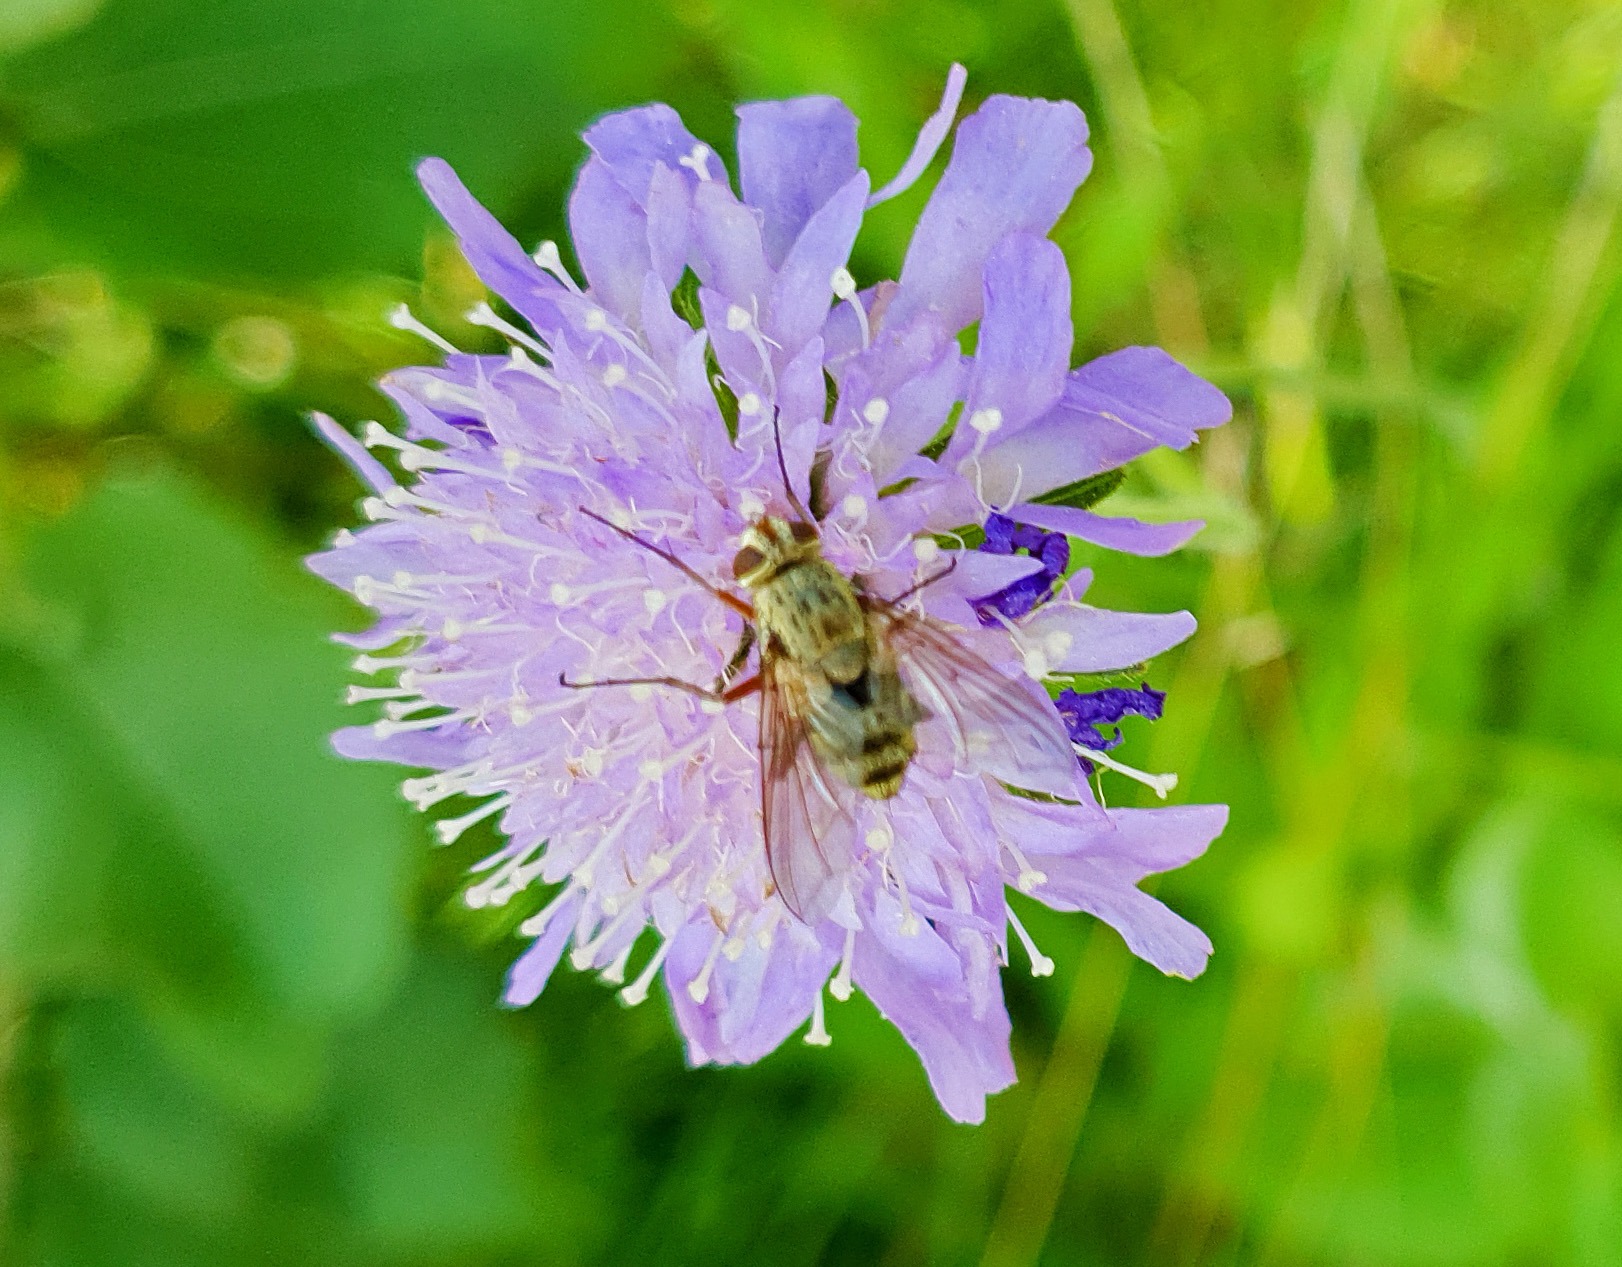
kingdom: Animalia
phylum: Arthropoda
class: Insecta
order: Diptera
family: Tachinidae
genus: Prosena
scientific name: Prosena siberita
